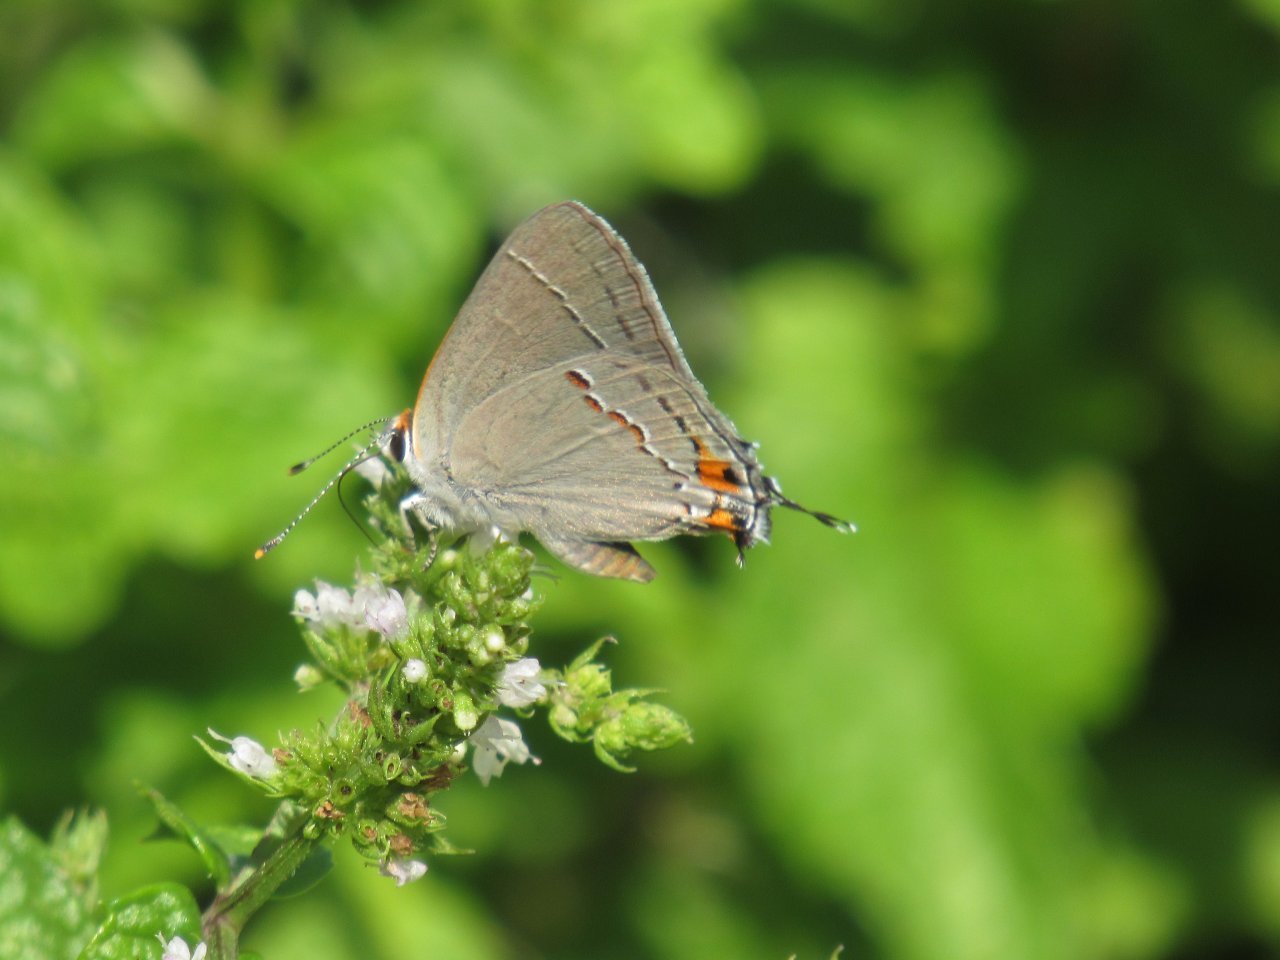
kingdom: Animalia
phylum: Arthropoda
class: Insecta
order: Lepidoptera
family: Lycaenidae
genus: Strymon
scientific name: Strymon melinus
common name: Gray Hairstreak
